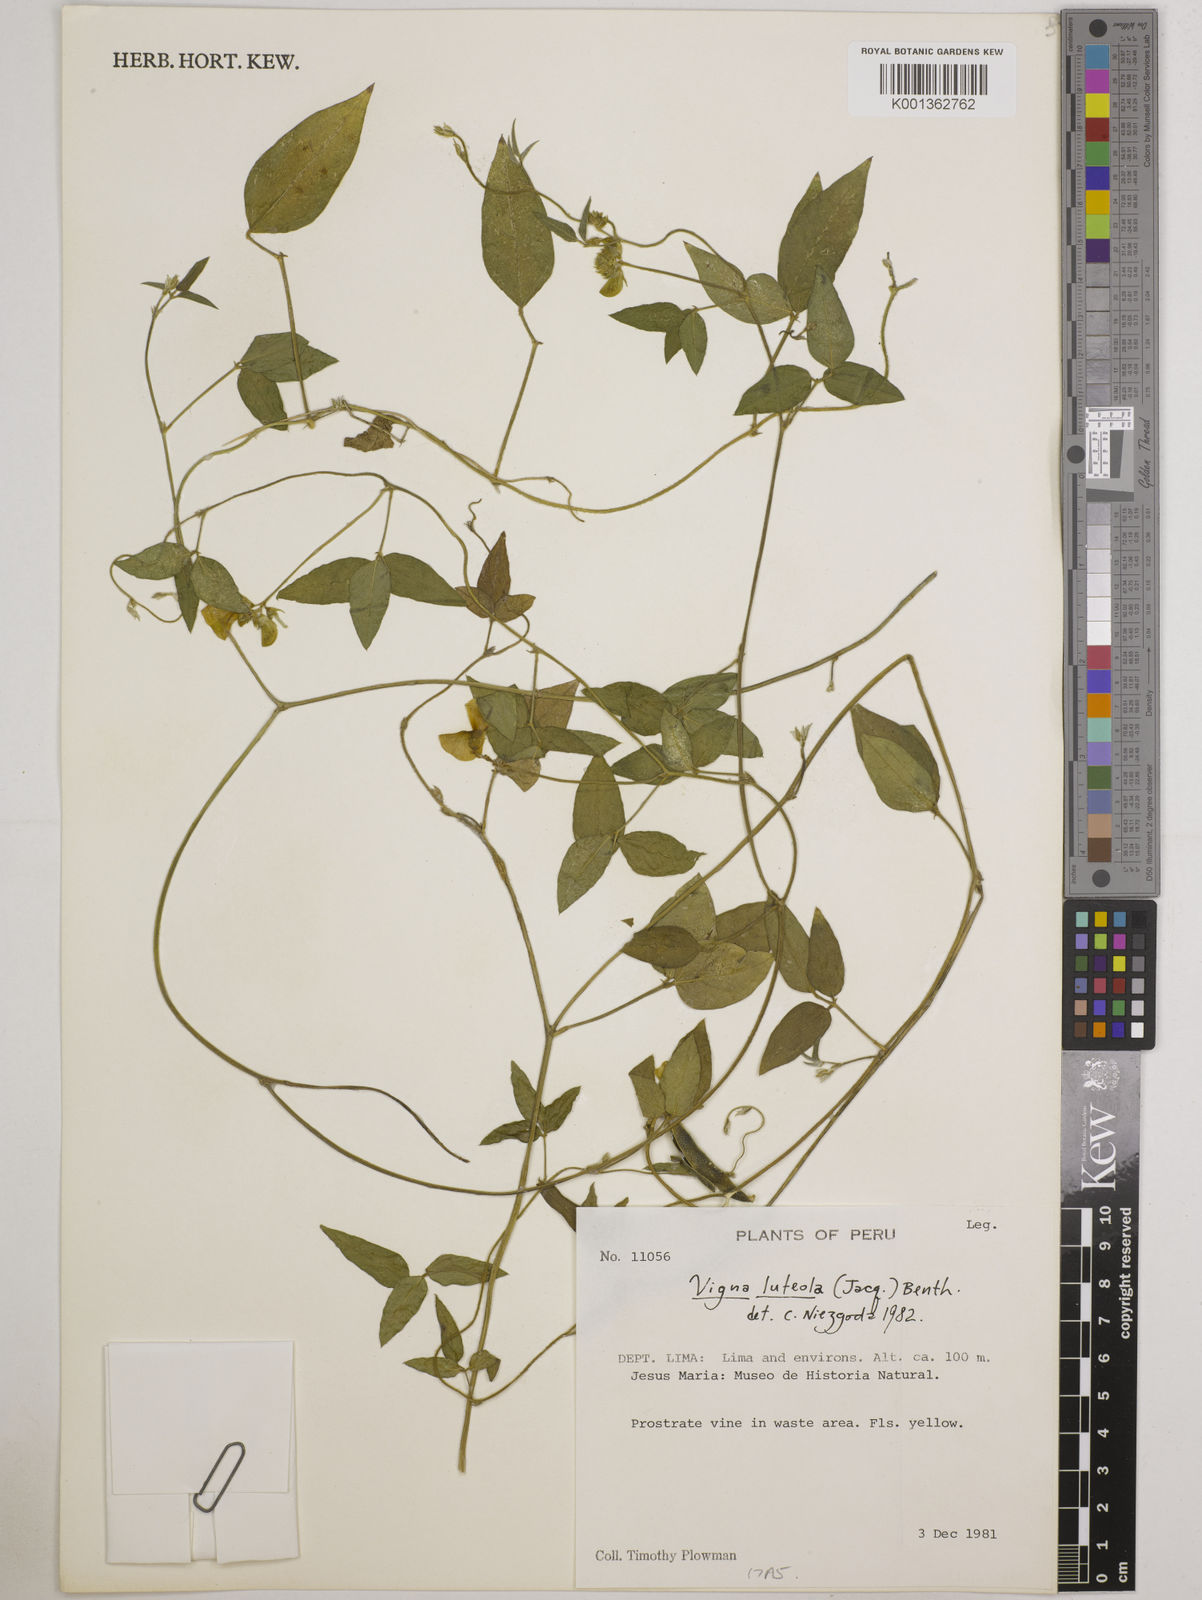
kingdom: Plantae
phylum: Tracheophyta
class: Magnoliopsida
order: Fabales
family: Fabaceae
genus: Vigna
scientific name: Vigna luteola
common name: Hairypod cowpea
